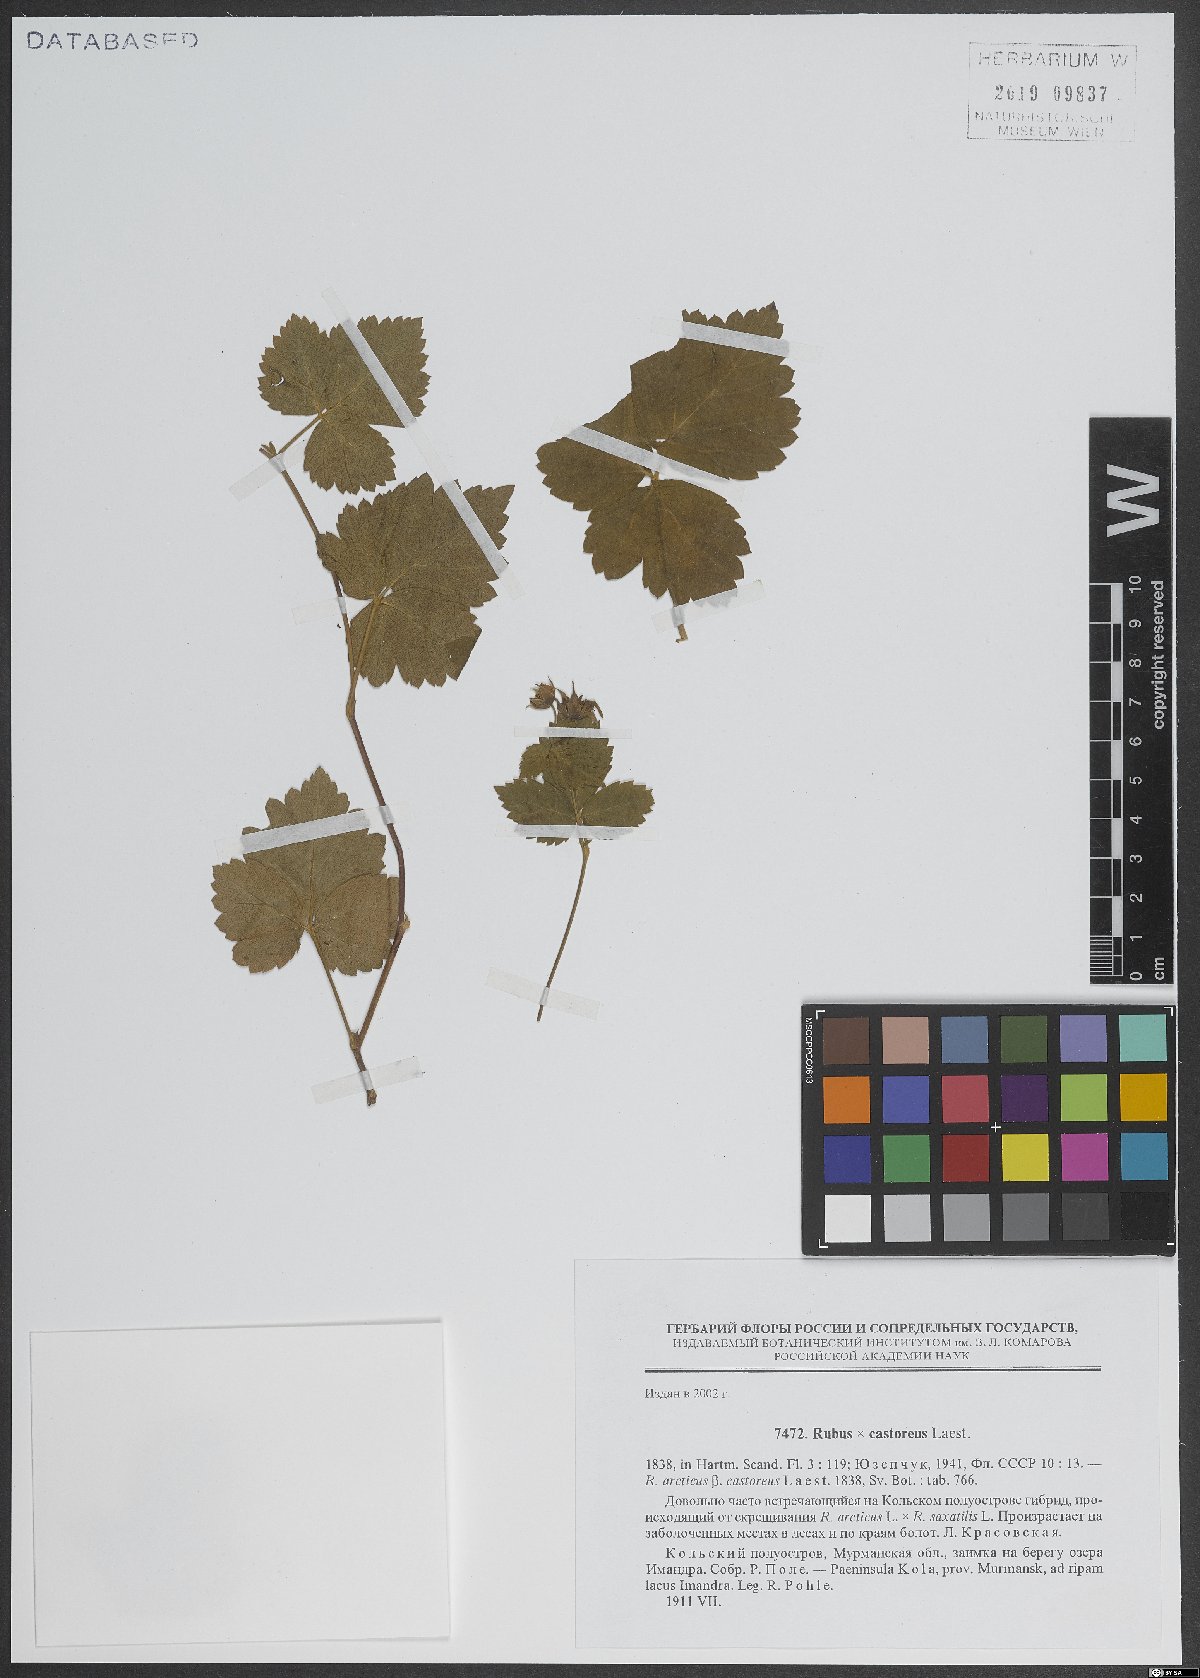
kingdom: Plantae
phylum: Tracheophyta
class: Magnoliopsida
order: Rosales
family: Rosaceae
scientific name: Rosaceae
